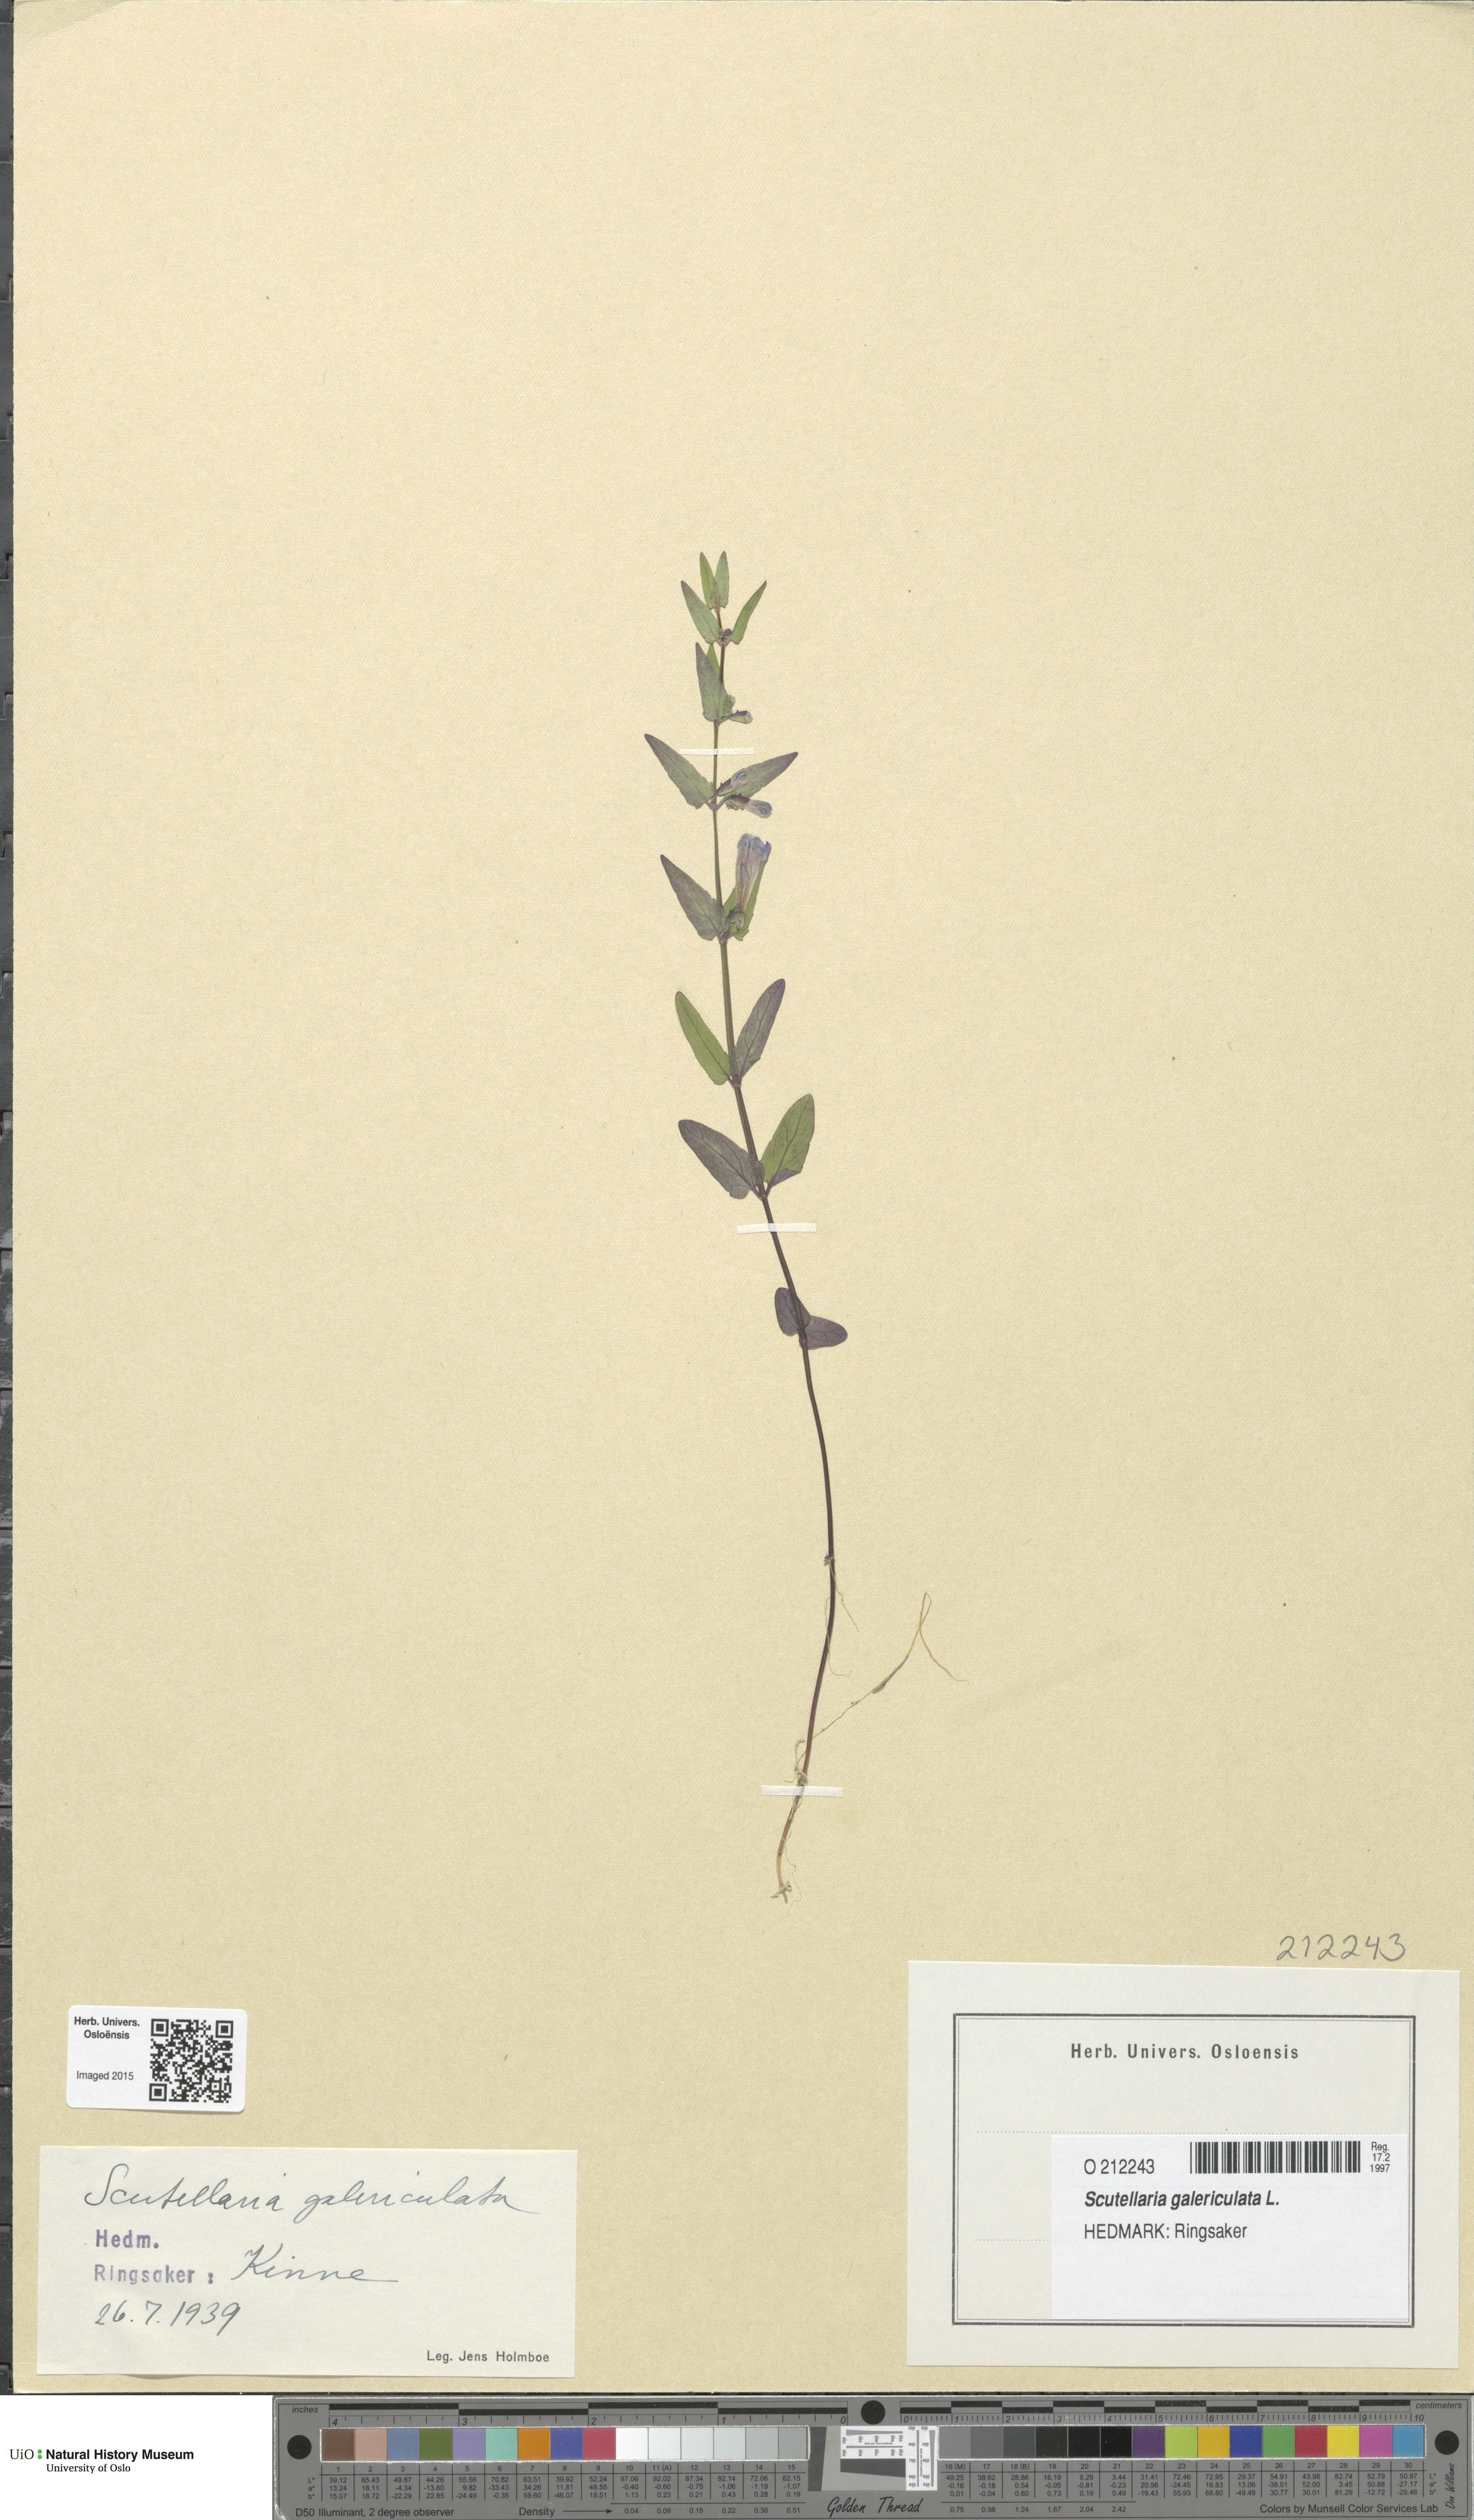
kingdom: Plantae
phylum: Tracheophyta
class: Magnoliopsida
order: Lamiales
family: Lamiaceae
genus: Scutellaria
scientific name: Scutellaria galericulata
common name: Skullcap
